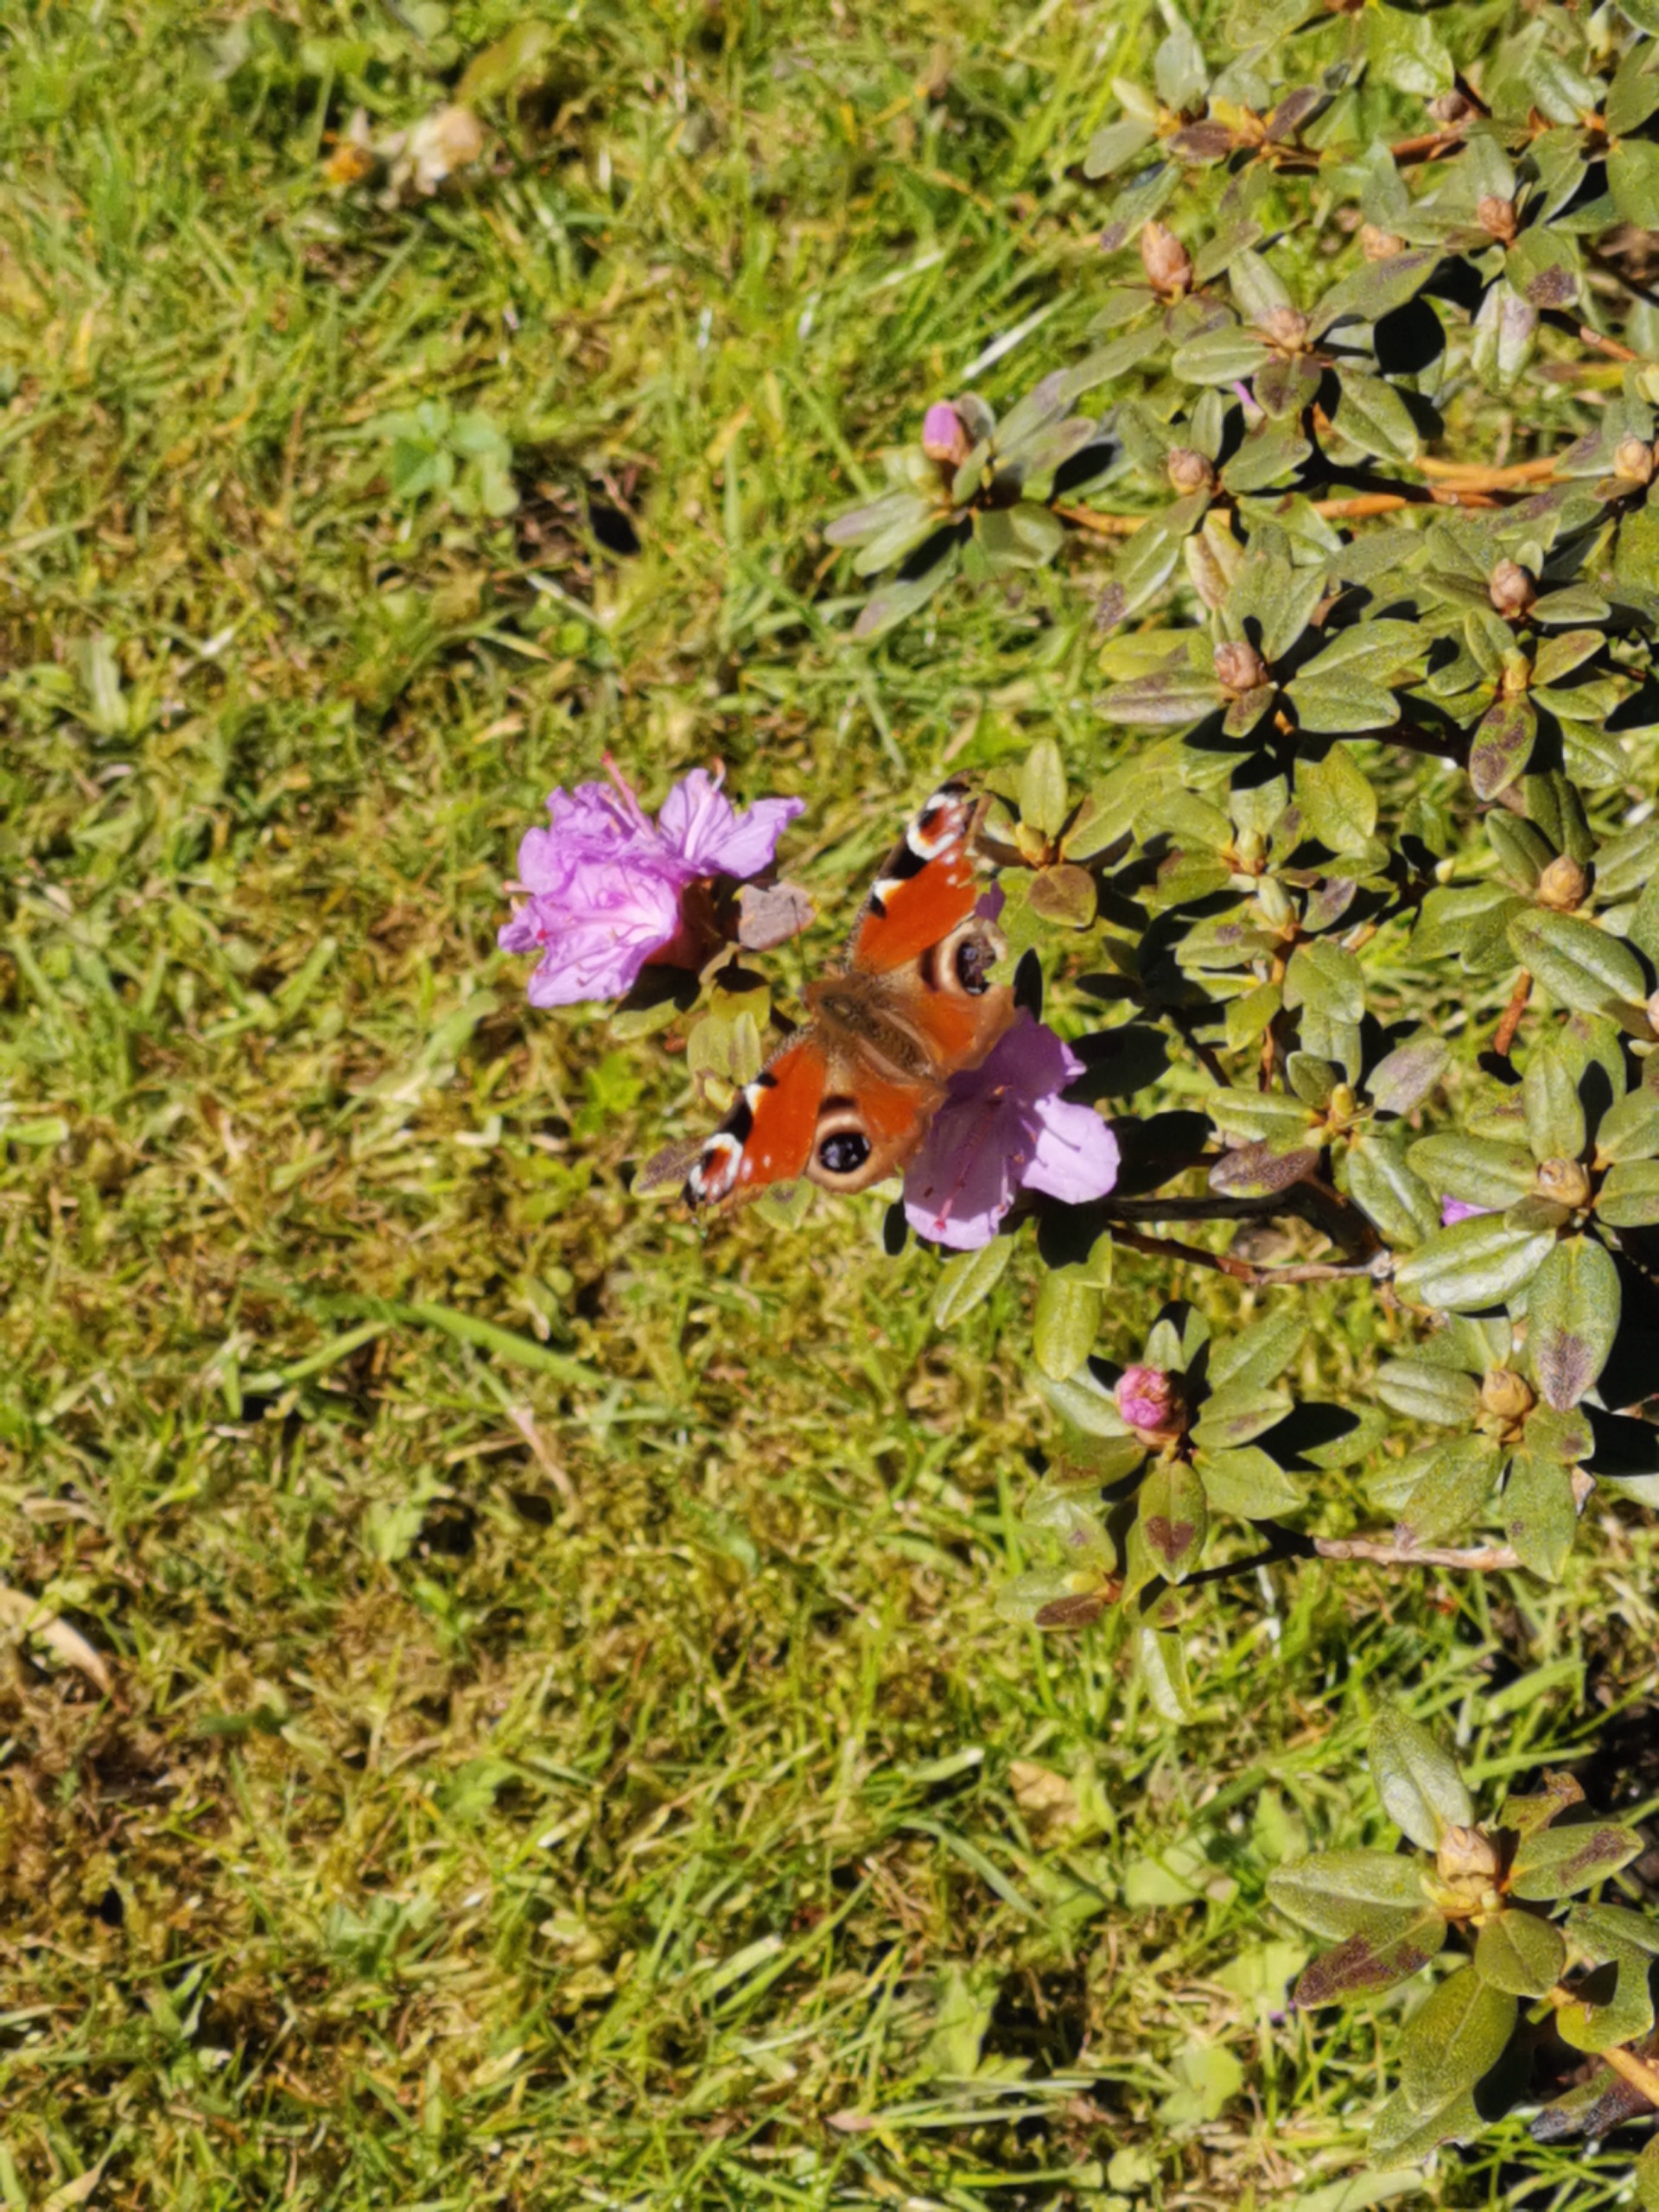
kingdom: Animalia
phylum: Arthropoda
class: Insecta
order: Lepidoptera
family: Nymphalidae
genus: Aglais
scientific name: Aglais io
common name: Dagpåfugleøje
